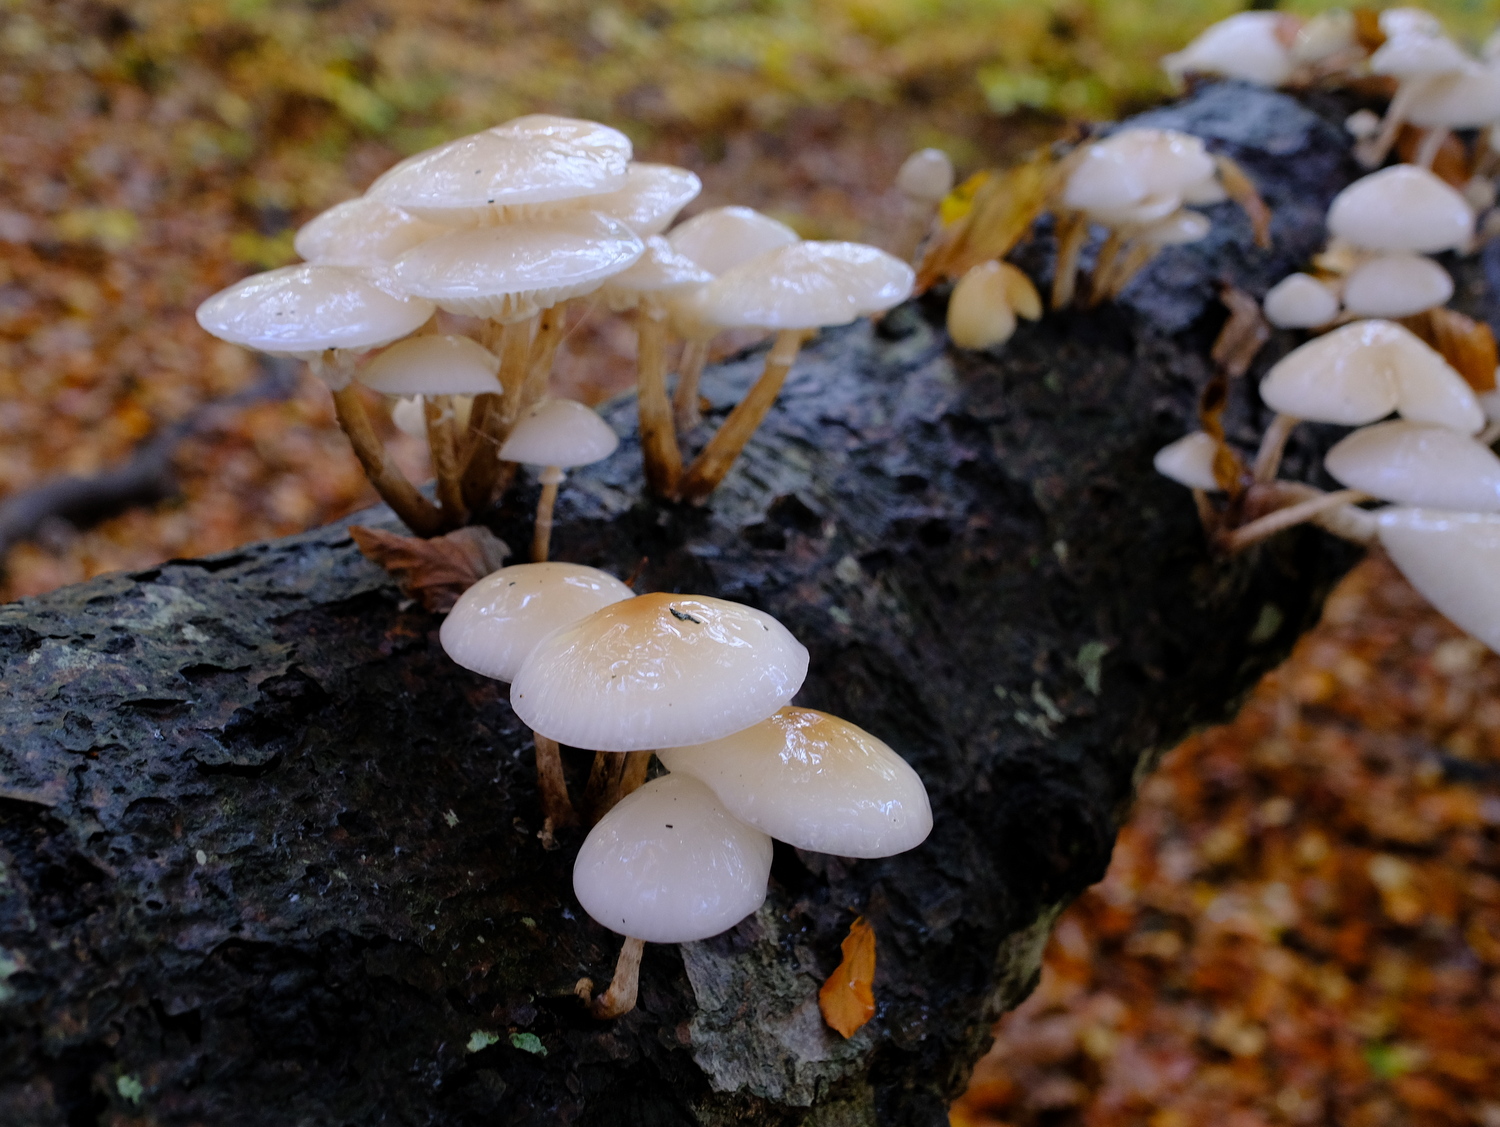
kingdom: Fungi
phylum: Basidiomycota
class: Agaricomycetes
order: Agaricales
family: Physalacriaceae
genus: Mucidula
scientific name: Mucidula mucida
